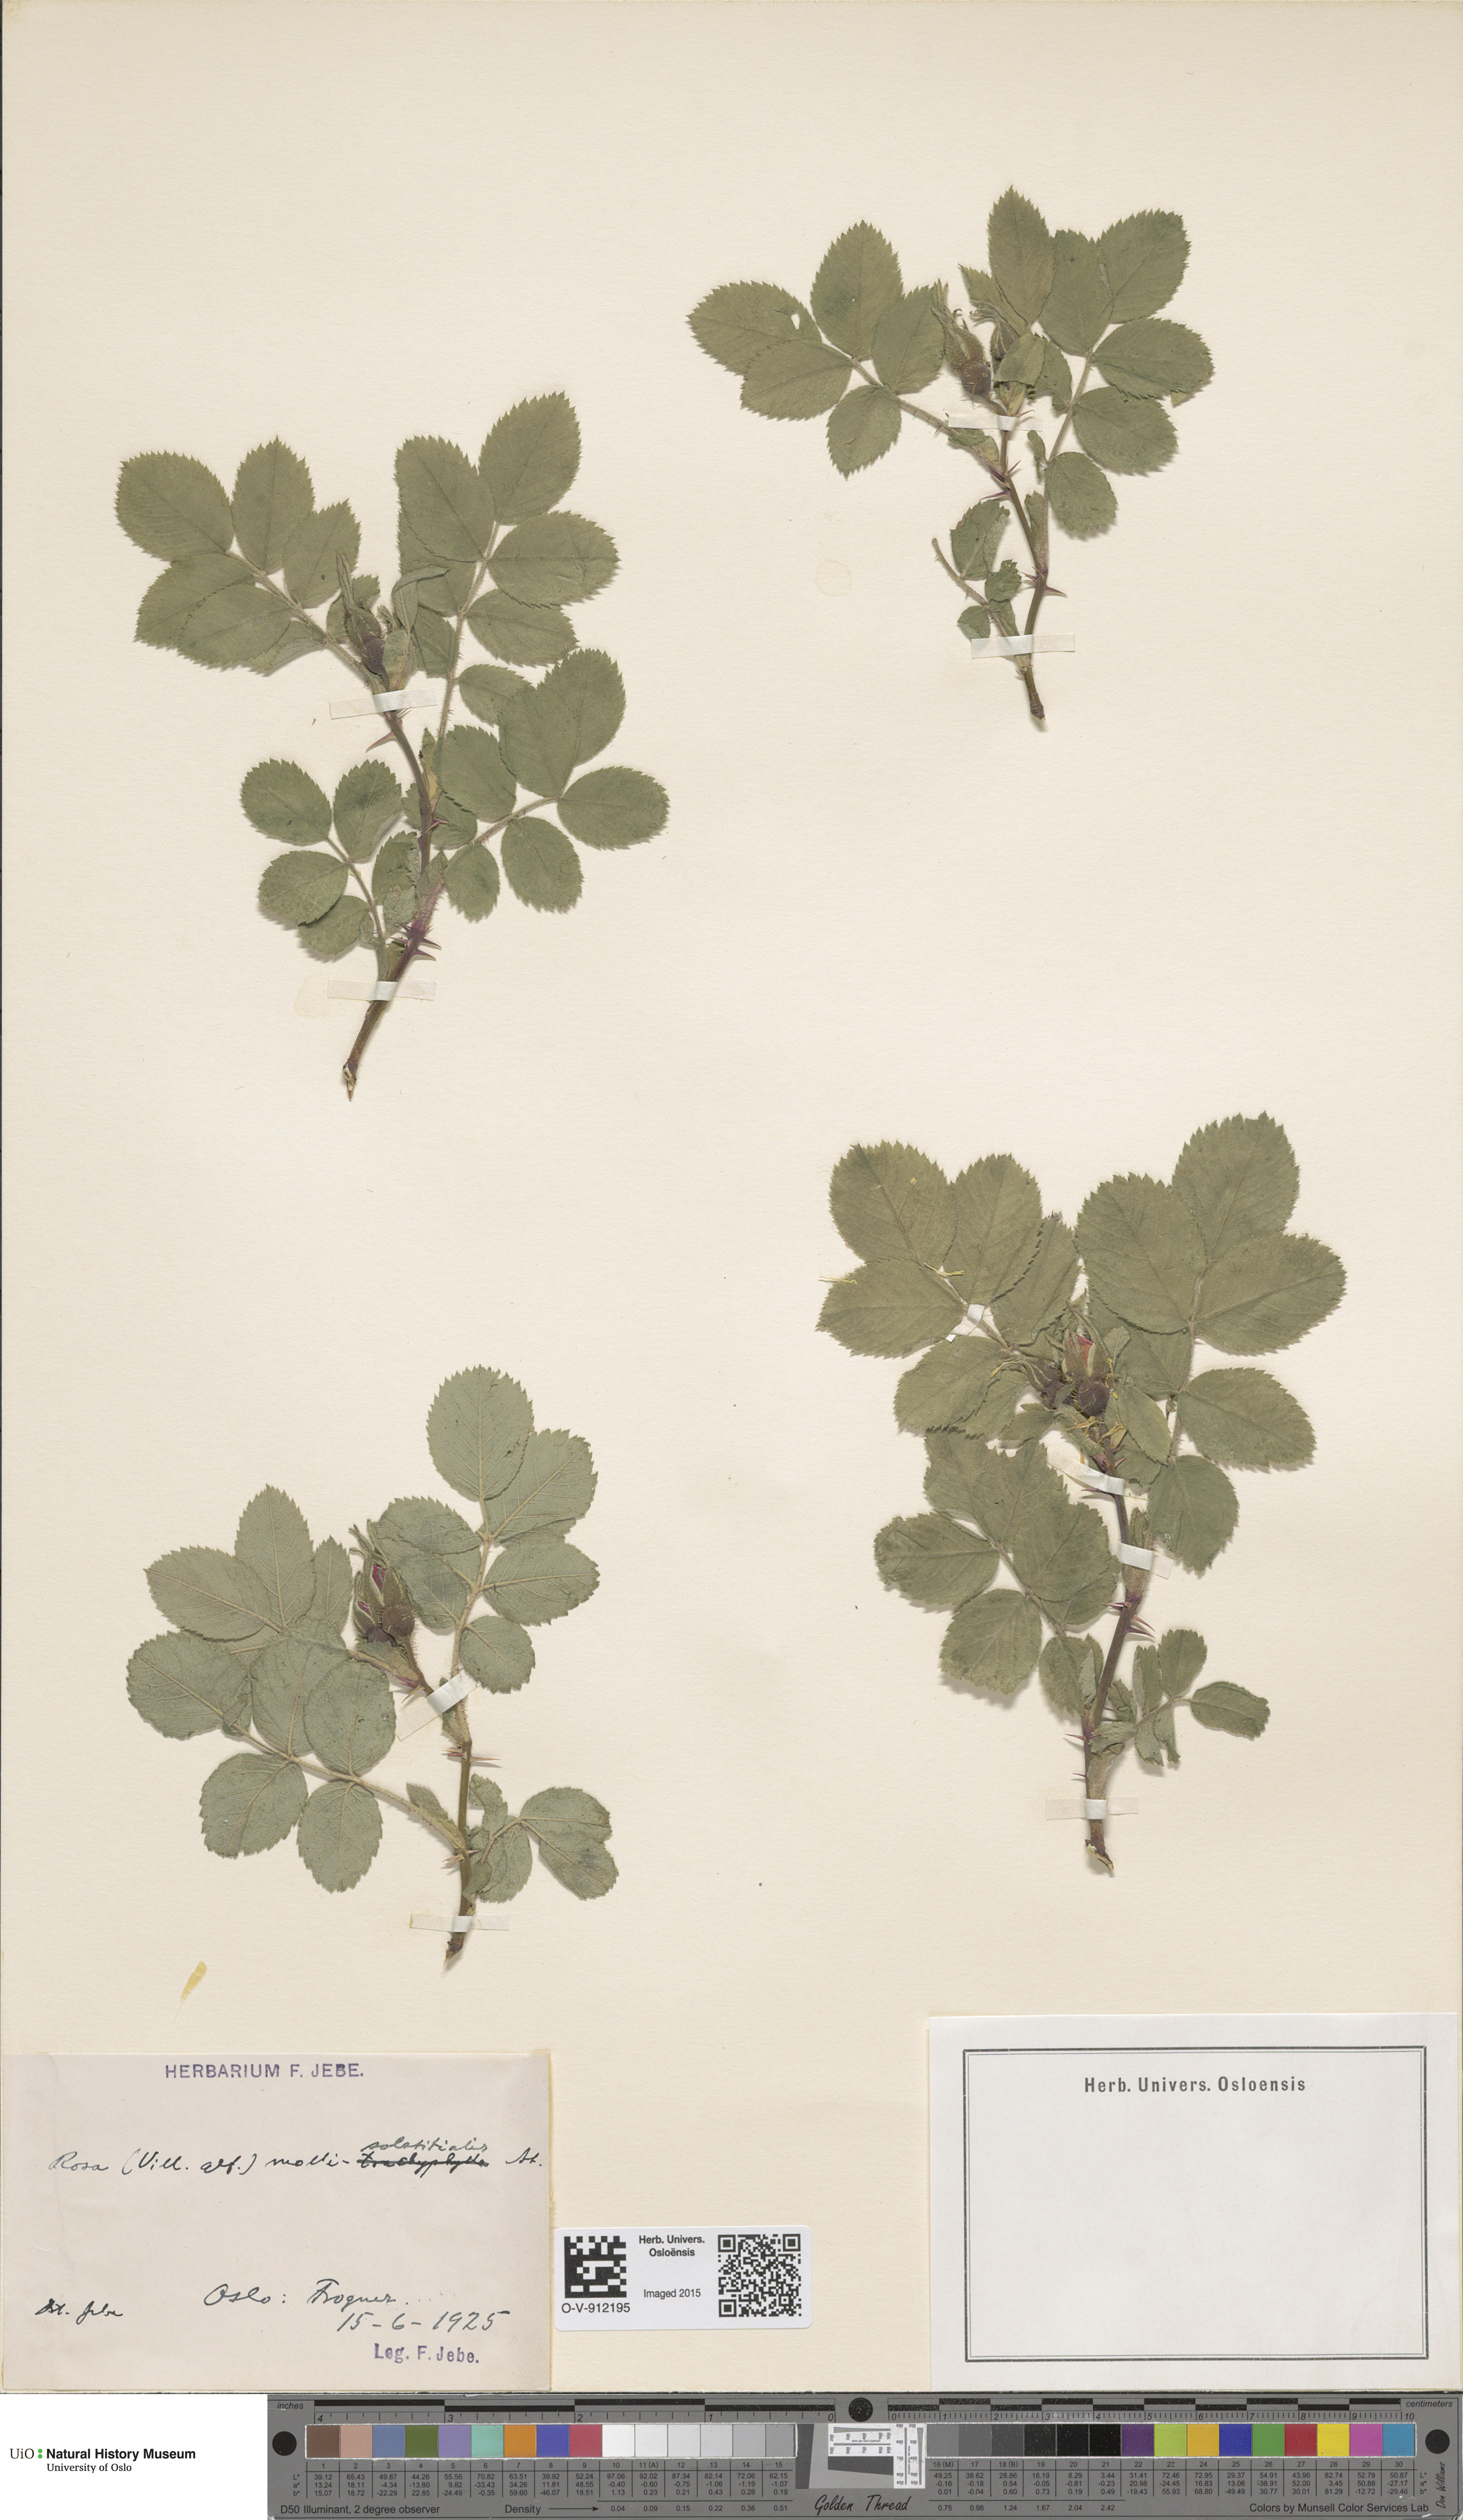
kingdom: Plantae
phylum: Tracheophyta
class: Magnoliopsida
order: Rosales
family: Rosaceae
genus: Rosa
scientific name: Rosa mollis
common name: Rose
